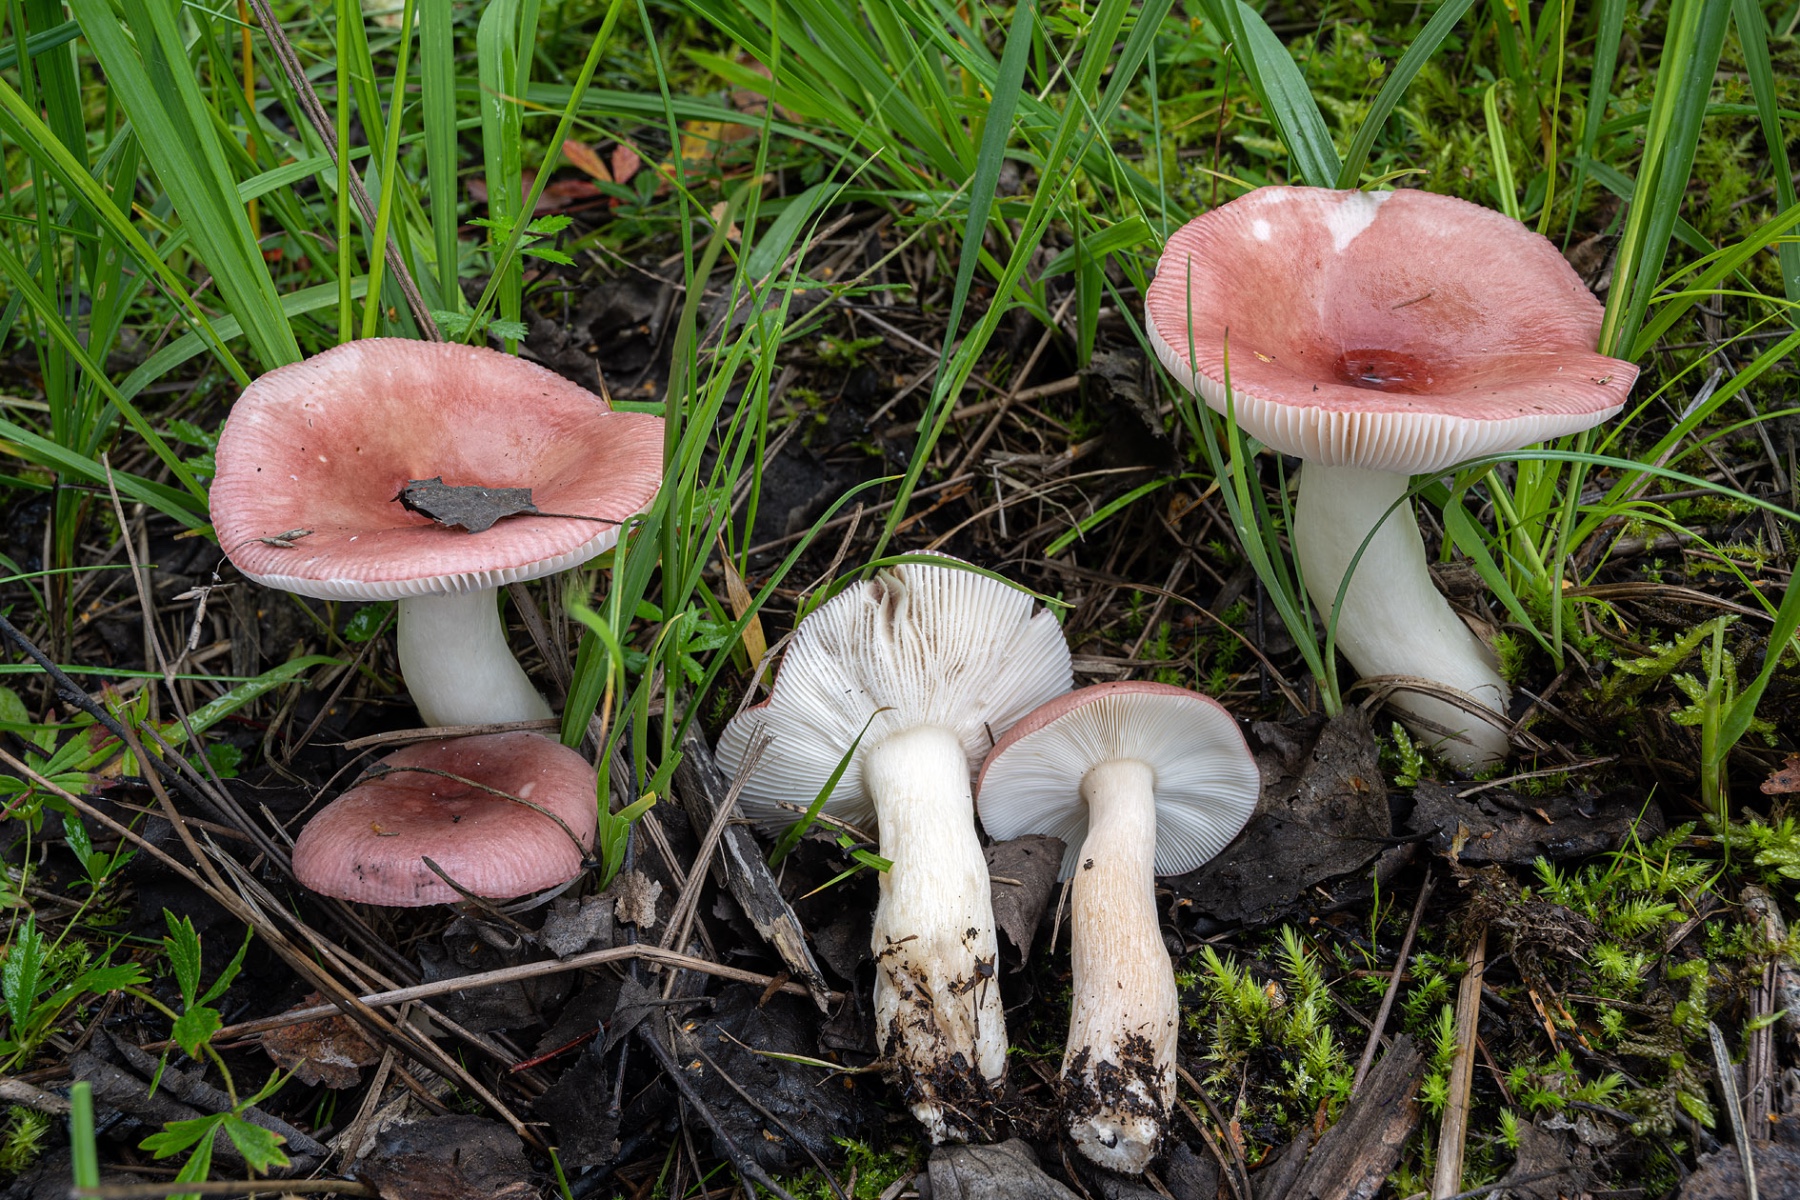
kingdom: Fungi
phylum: Basidiomycota
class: Agaricomycetes
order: Russulales
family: Russulaceae
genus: Russula
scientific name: Russula gracillima
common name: slank skørhat
